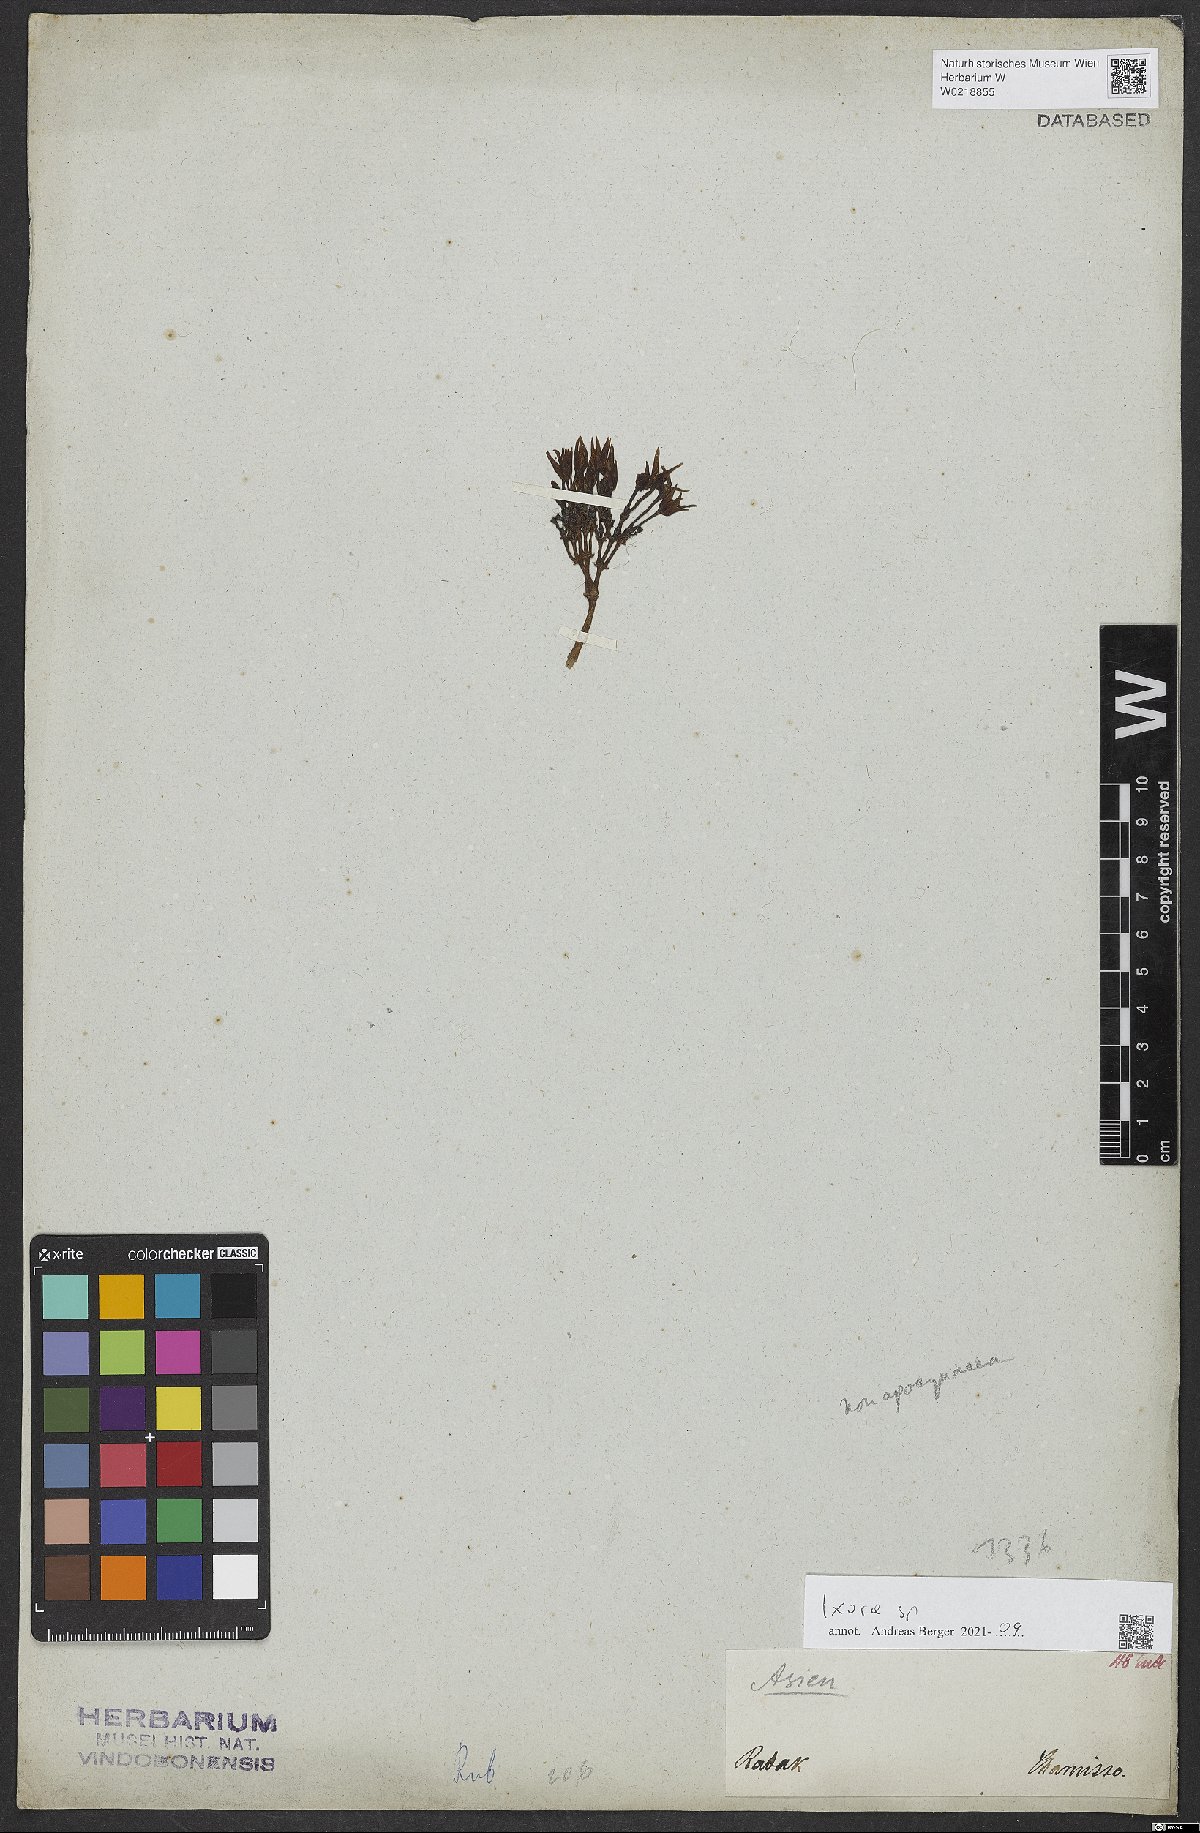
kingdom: Plantae
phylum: Tracheophyta
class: Magnoliopsida
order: Gentianales
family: Rubiaceae
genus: Ixora
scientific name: Ixora
